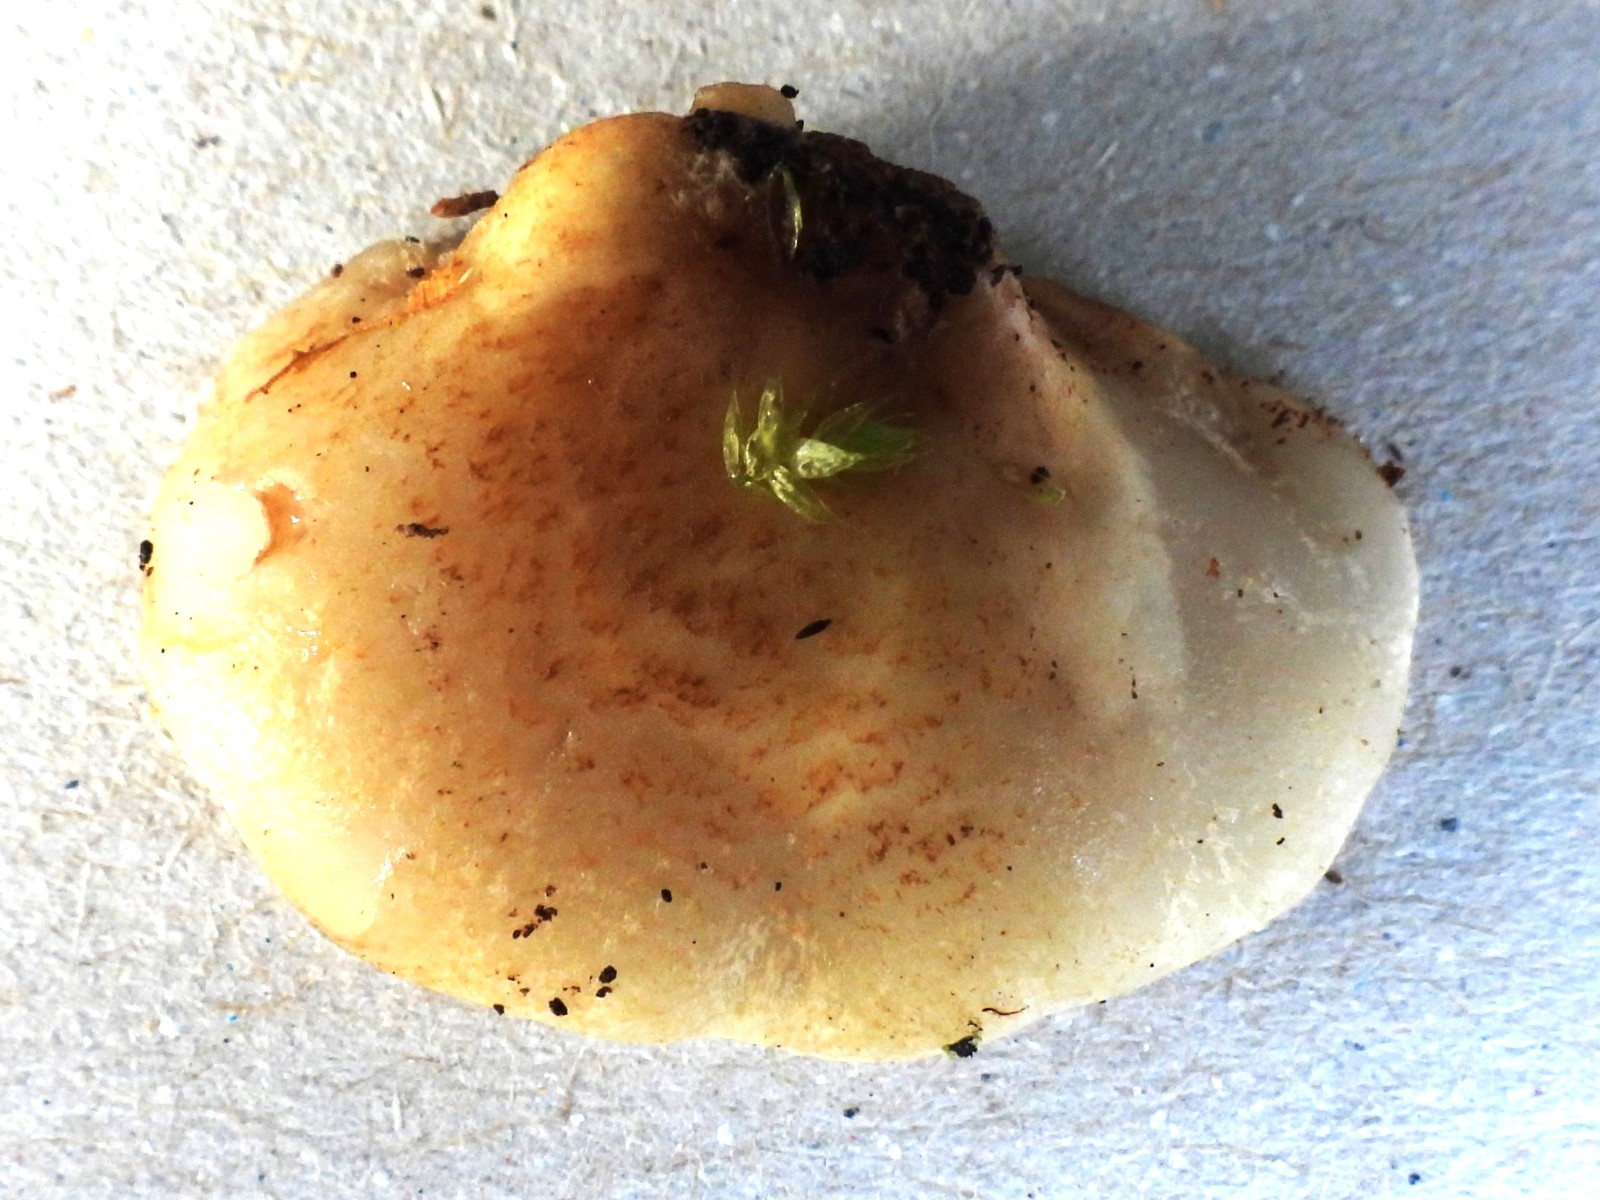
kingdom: Fungi
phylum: Basidiomycota
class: Agaricomycetes
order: Agaricales
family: Crepidotaceae
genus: Crepidotus
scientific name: Crepidotus calolepis
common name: småskællet muslingesvamp
